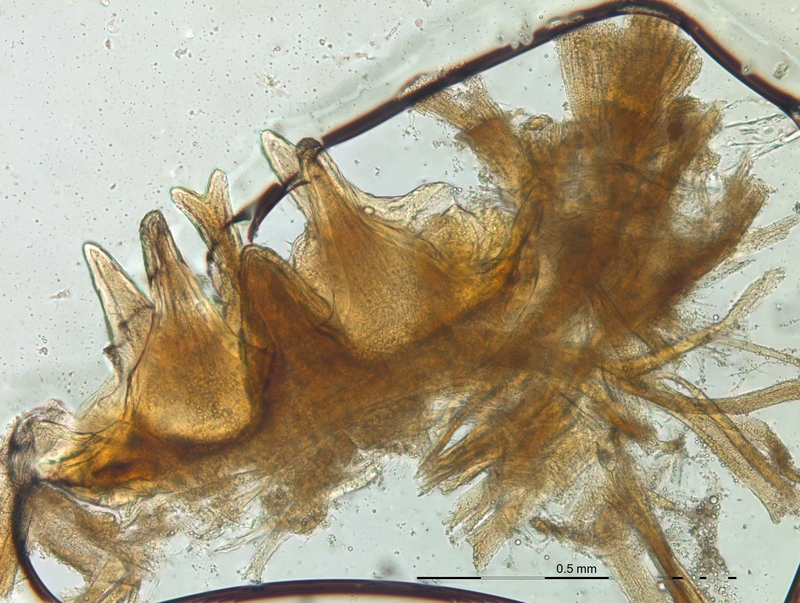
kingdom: Animalia
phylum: Arthropoda
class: Diplopoda
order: Chordeumatida
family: Craspedosomatidae
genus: Craspedosoma
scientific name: Craspedosoma rawlinsii
